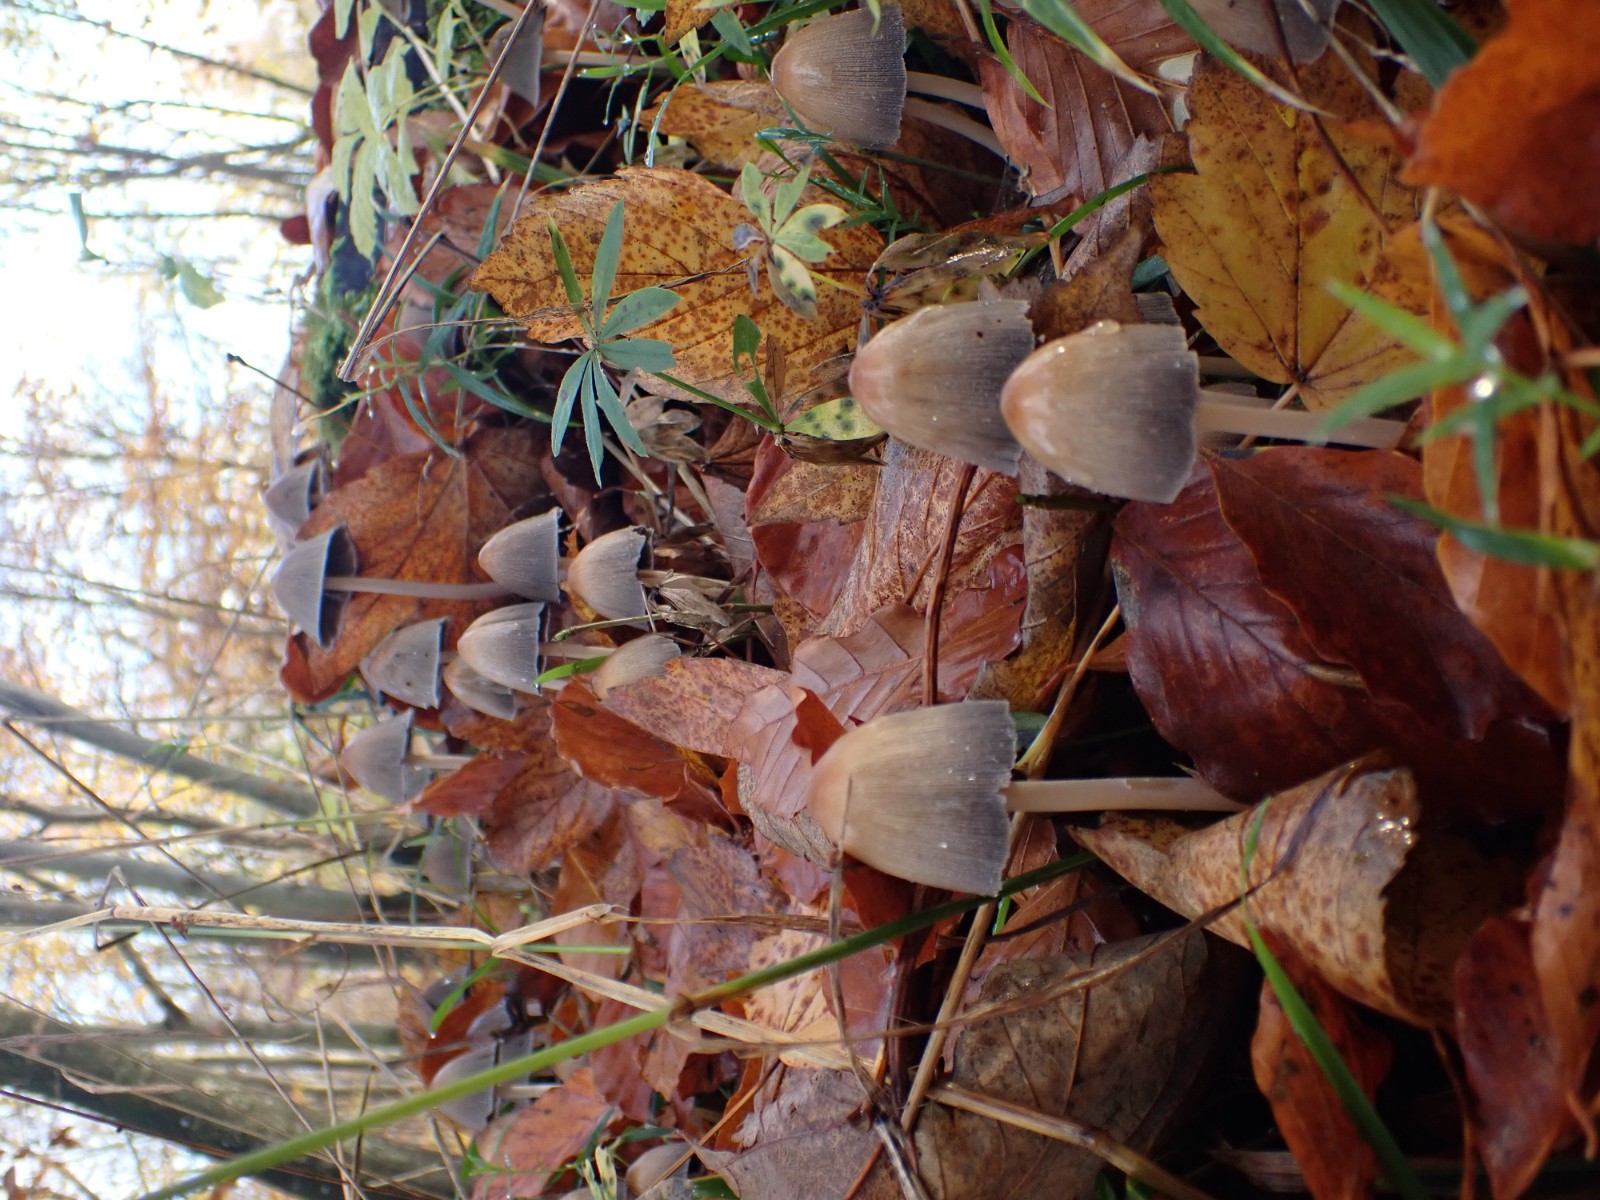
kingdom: Fungi
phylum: Basidiomycota
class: Agaricomycetes
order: Agaricales
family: Psathyrellaceae
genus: Coprinellus
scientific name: Coprinellus
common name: blækhat
